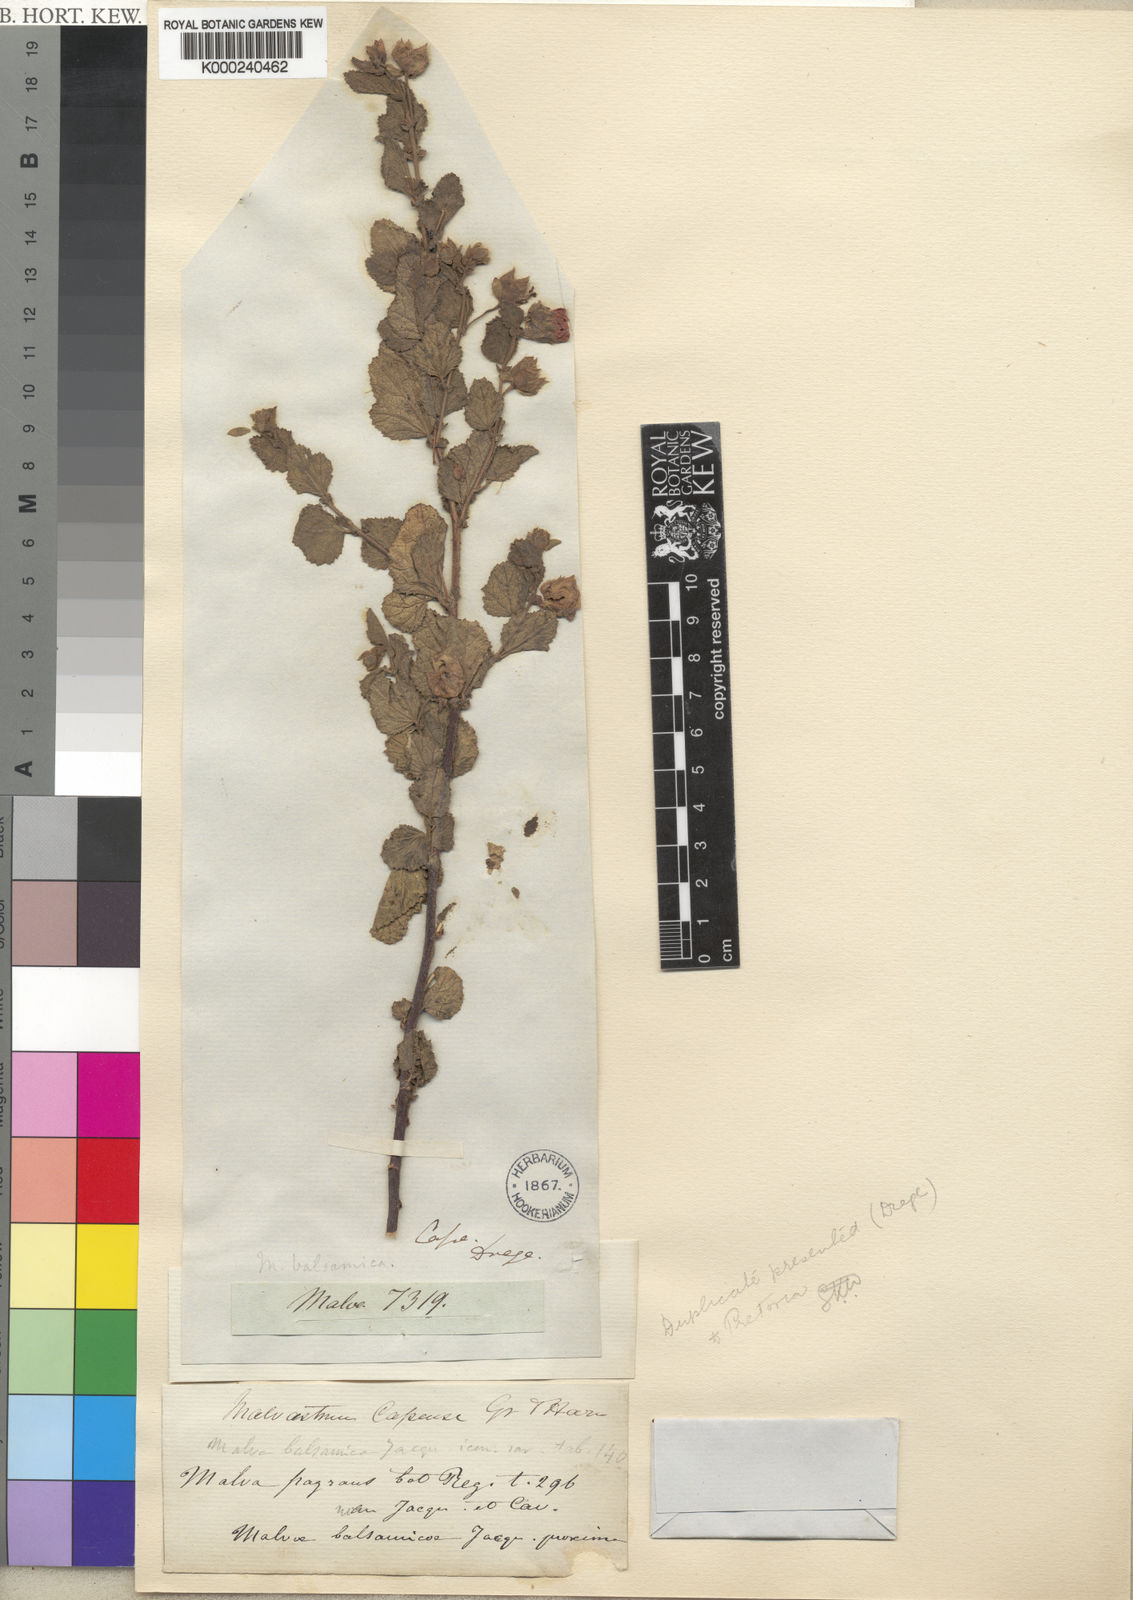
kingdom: Plantae
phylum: Tracheophyta
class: Magnoliopsida
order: Malvales
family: Malvaceae
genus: Anisodontea
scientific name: Anisodontea scabrosa
